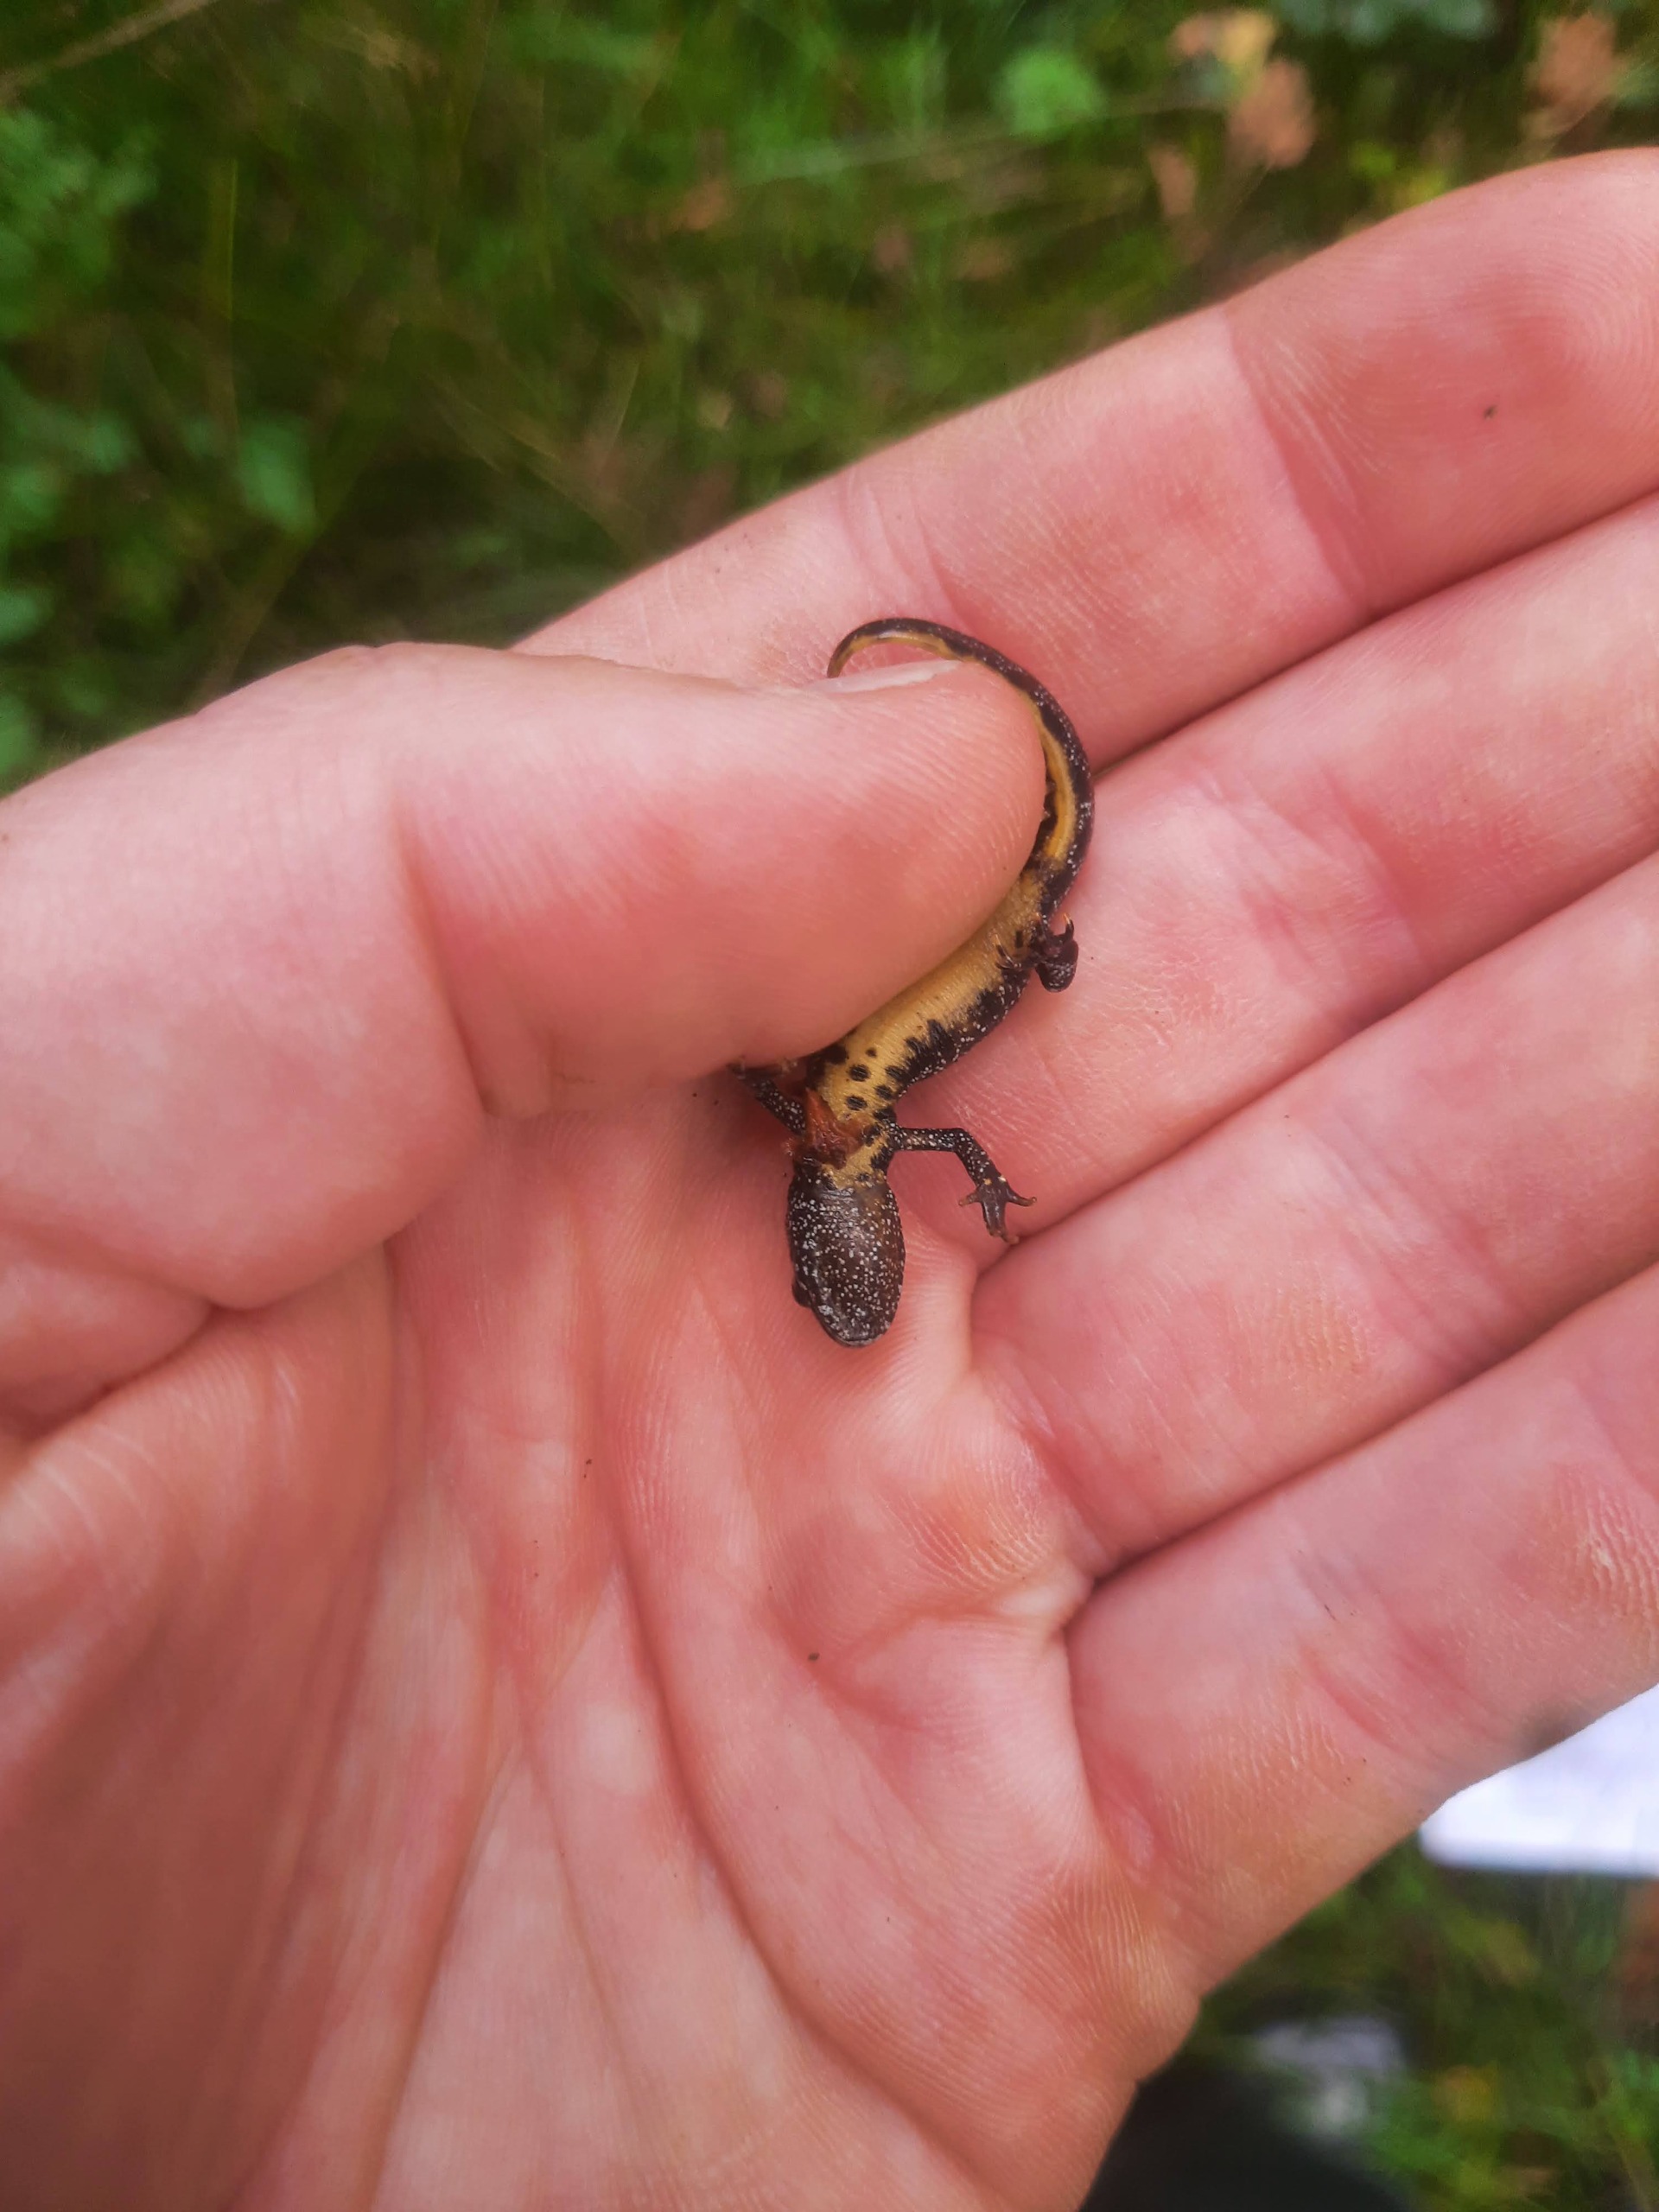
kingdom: Animalia
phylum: Chordata
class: Amphibia
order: Caudata
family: Salamandridae
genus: Triturus
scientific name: Triturus cristatus
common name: Stor vandsalamander
